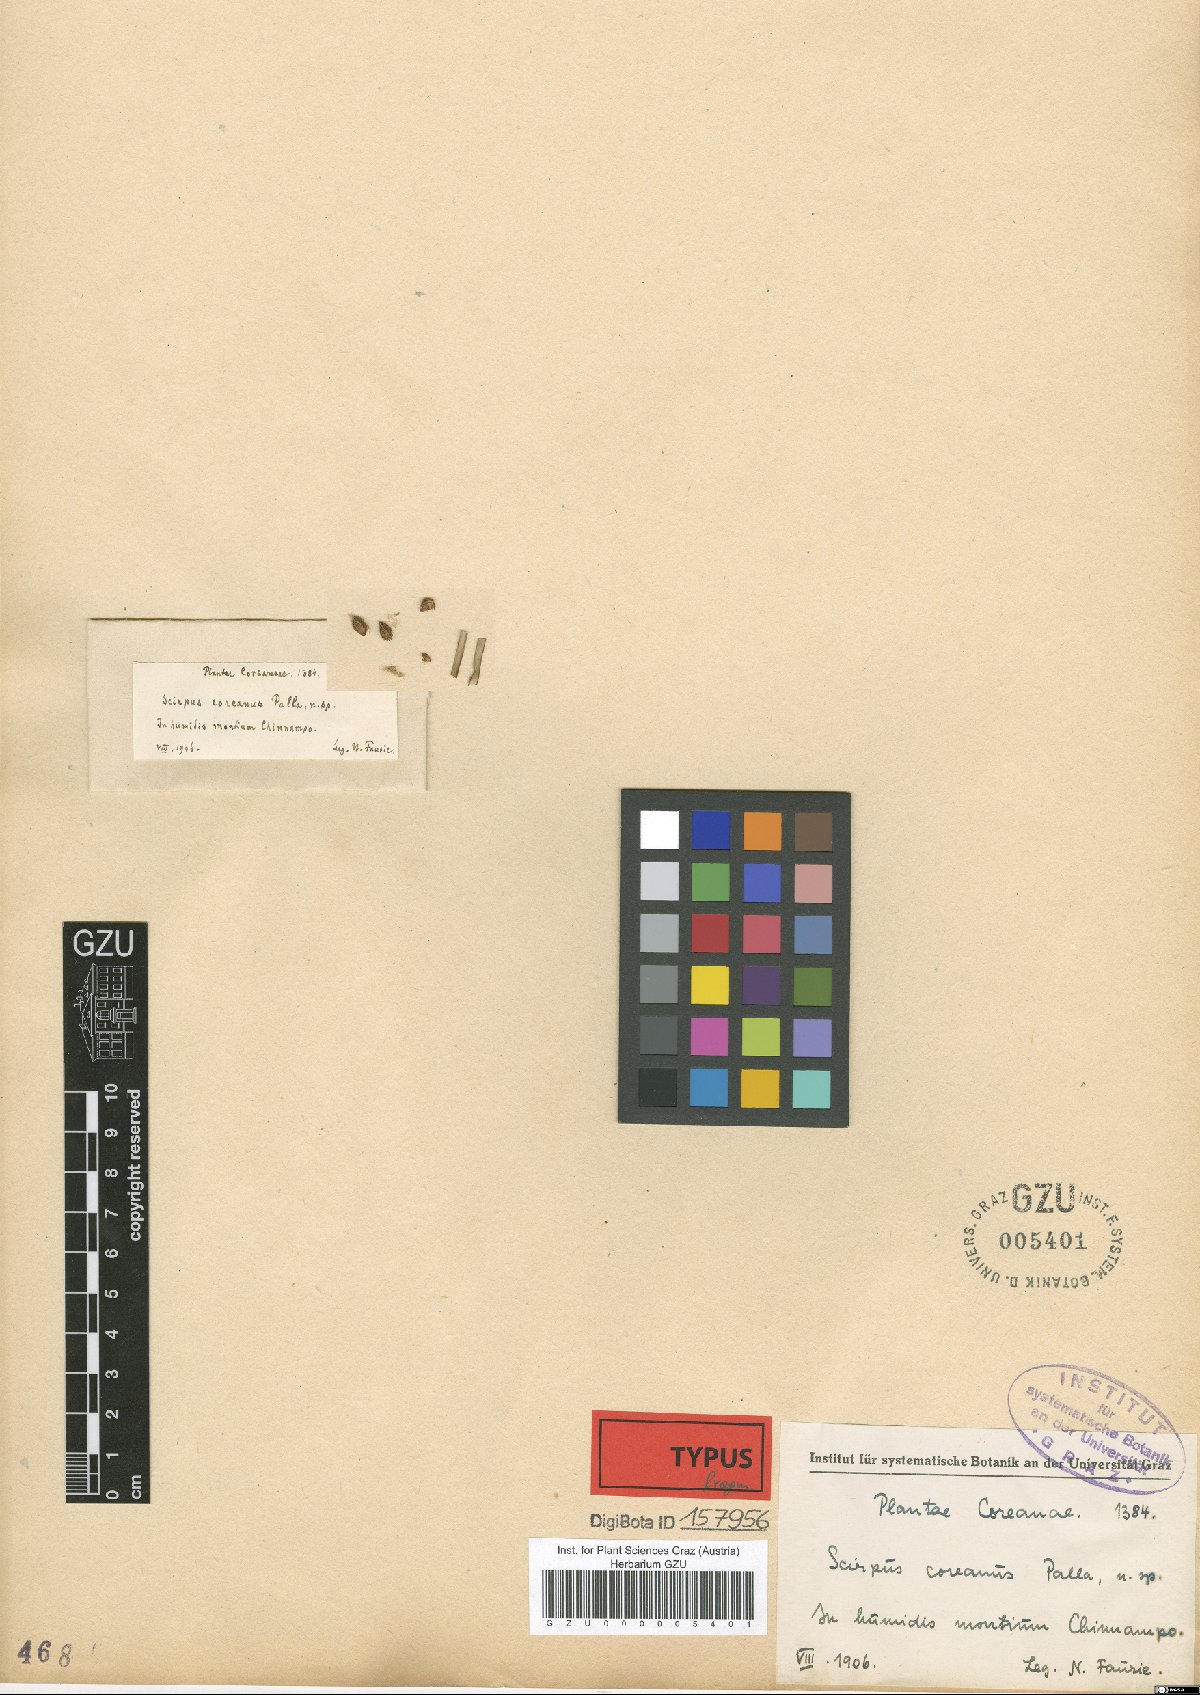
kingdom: Plantae
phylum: Tracheophyta
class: Liliopsida
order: Poales
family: Cyperaceae
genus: Scirpus
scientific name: Scirpus karuisawensis
